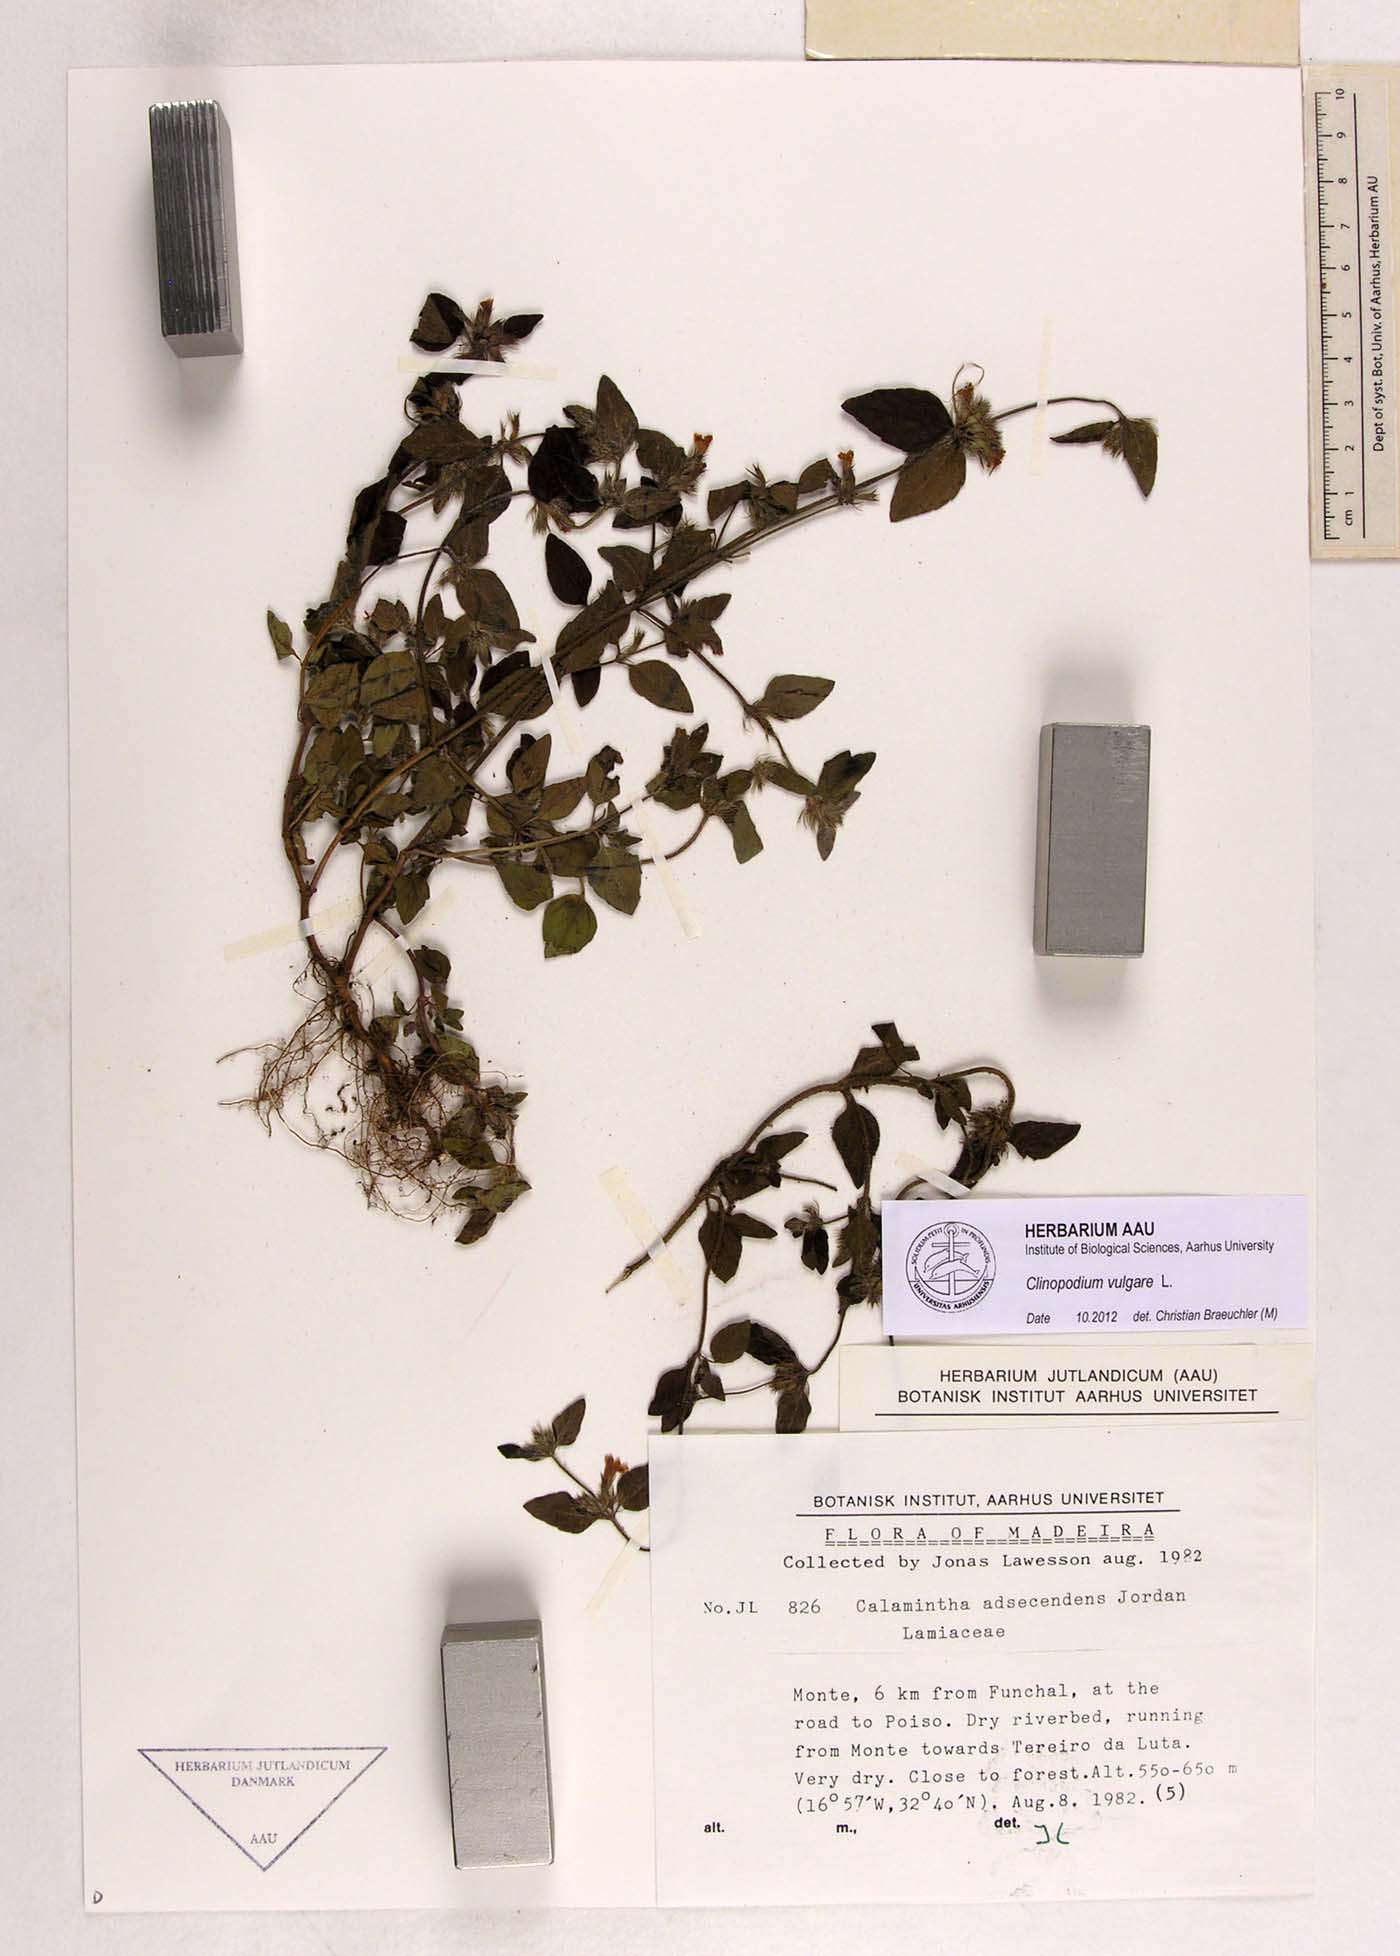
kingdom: Plantae
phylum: Tracheophyta
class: Magnoliopsida
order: Lamiales
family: Lamiaceae
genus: Clinopodium
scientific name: Clinopodium vulgare
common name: Wild basil
